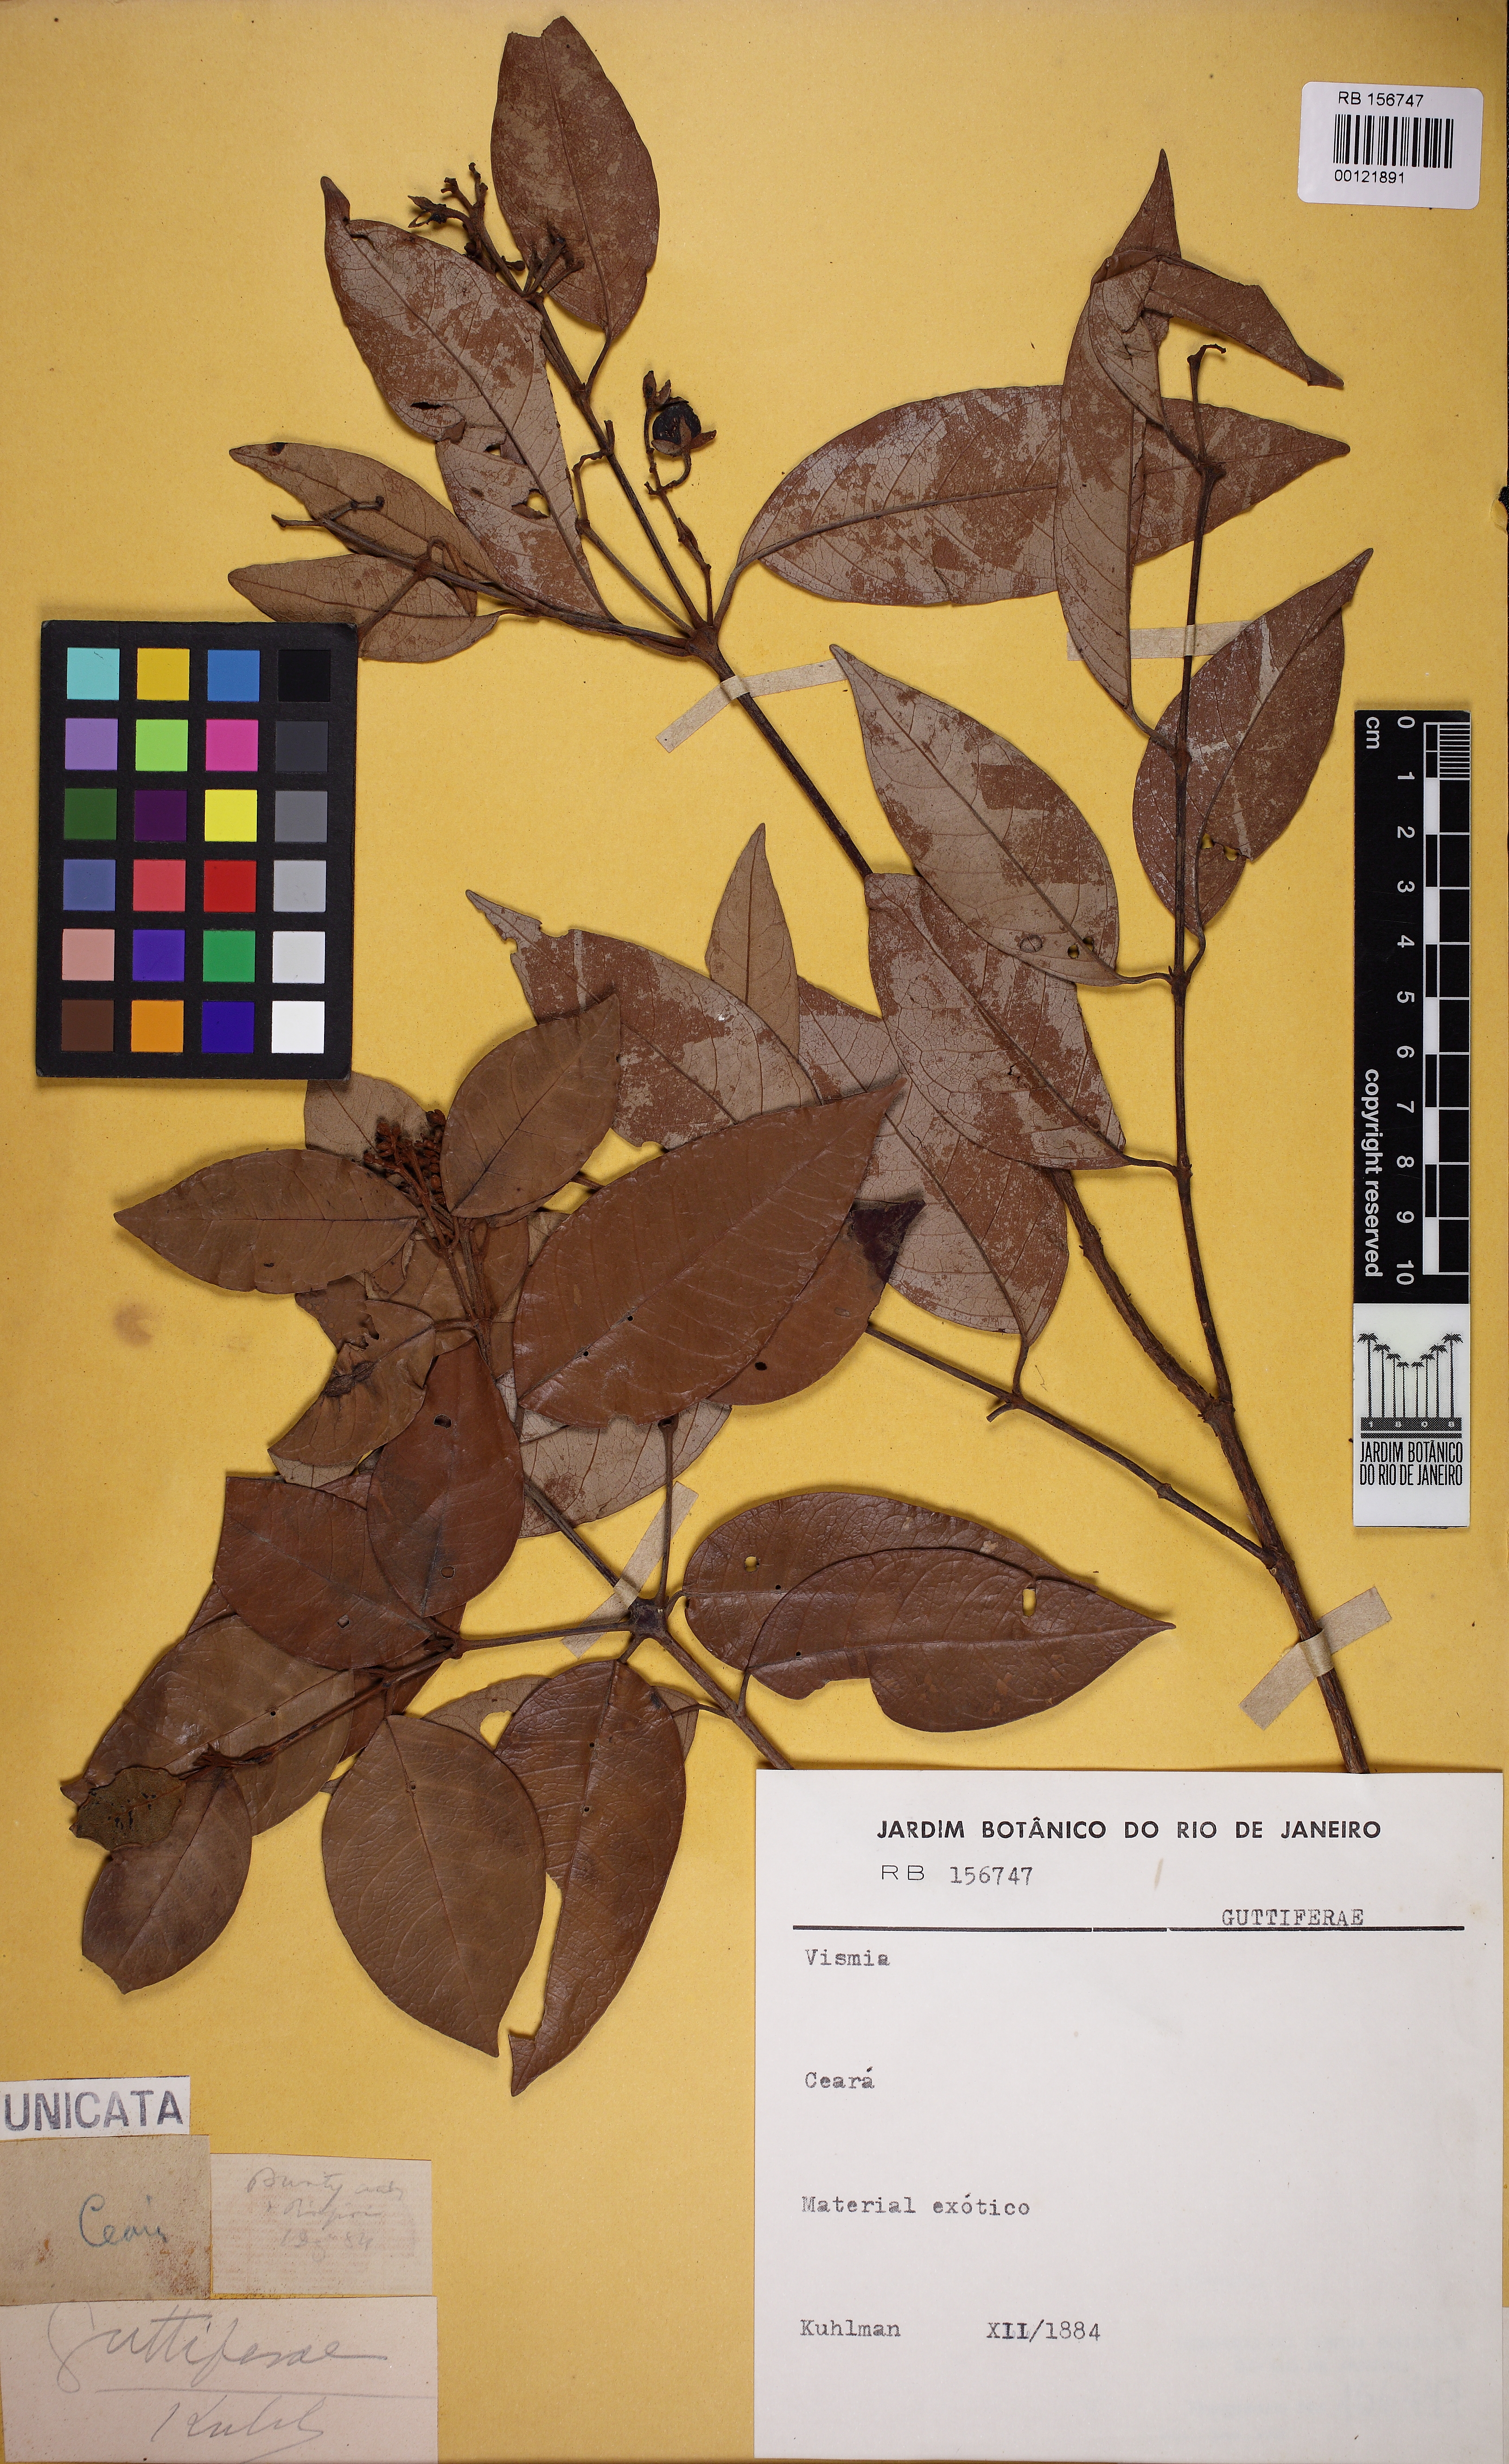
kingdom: Plantae
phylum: Tracheophyta
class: Magnoliopsida
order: Malpighiales
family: Hypericaceae
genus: Vismia
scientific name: Vismia guianensis
